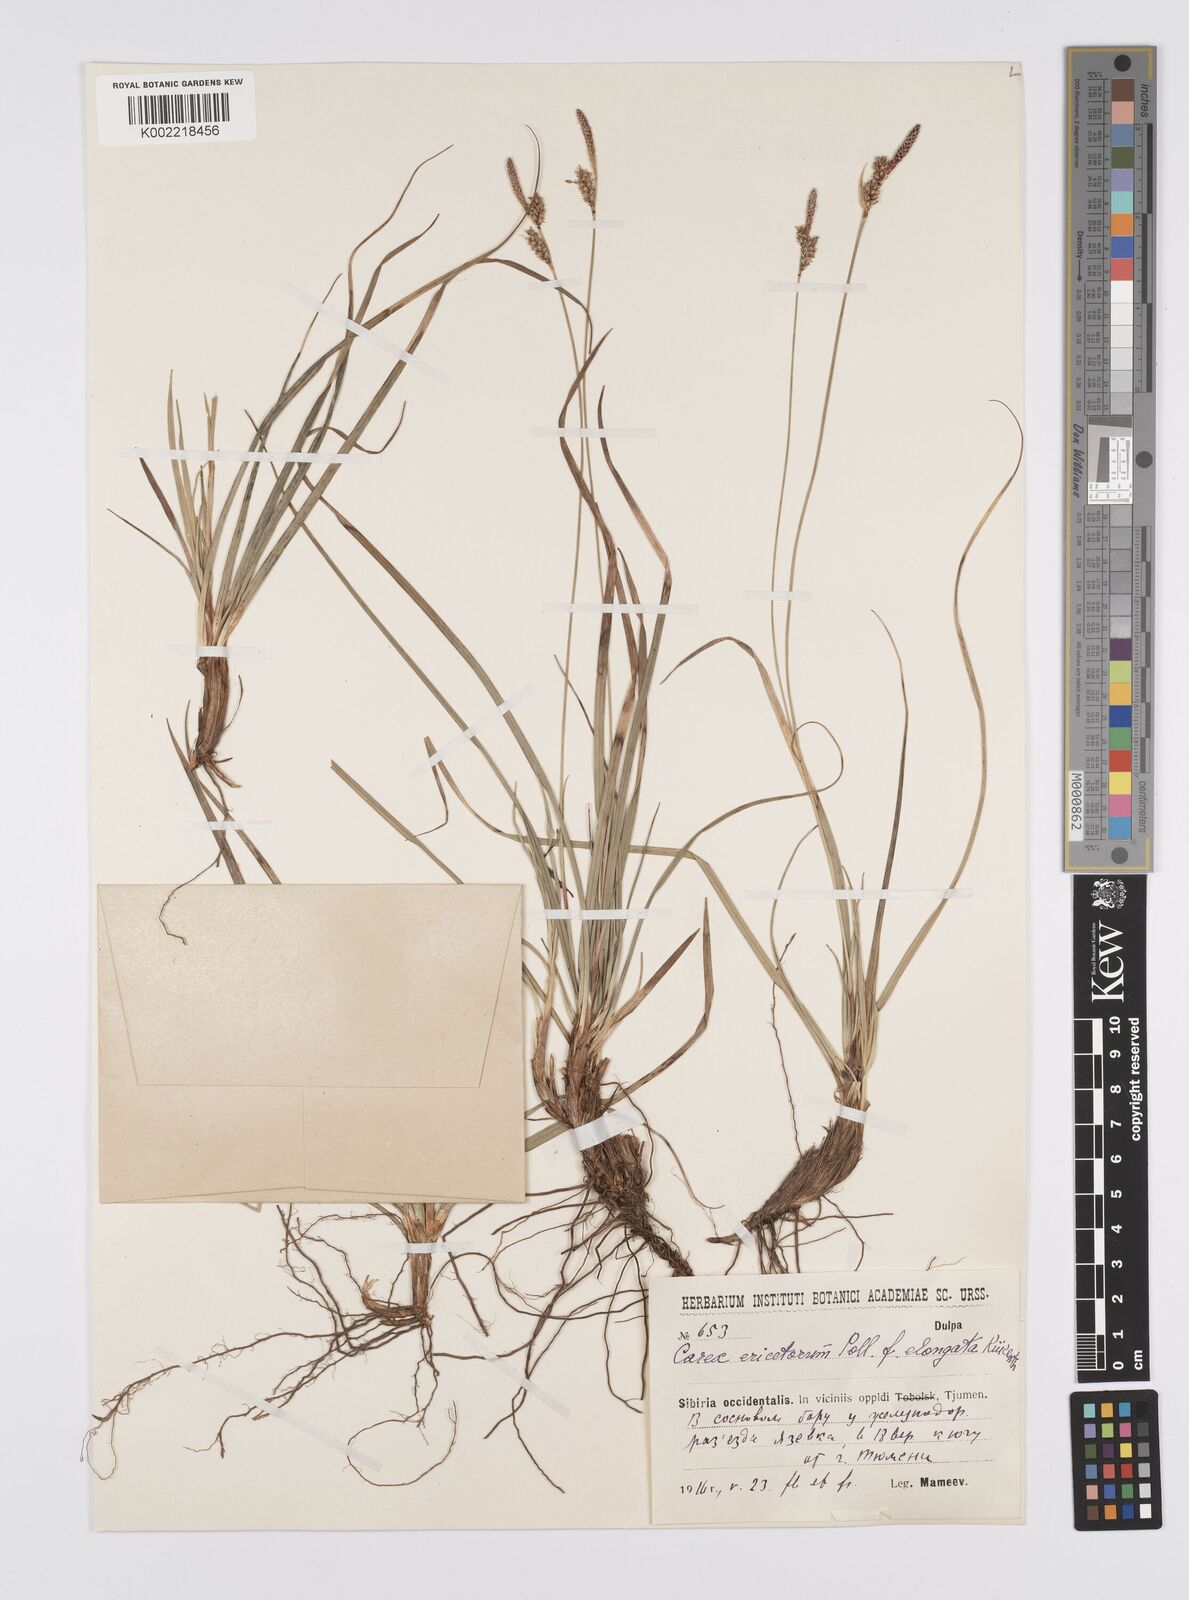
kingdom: Plantae
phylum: Tracheophyta
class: Liliopsida
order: Poales
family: Cyperaceae
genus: Carex
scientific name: Carex ericetorum
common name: Rare spring-sedge
